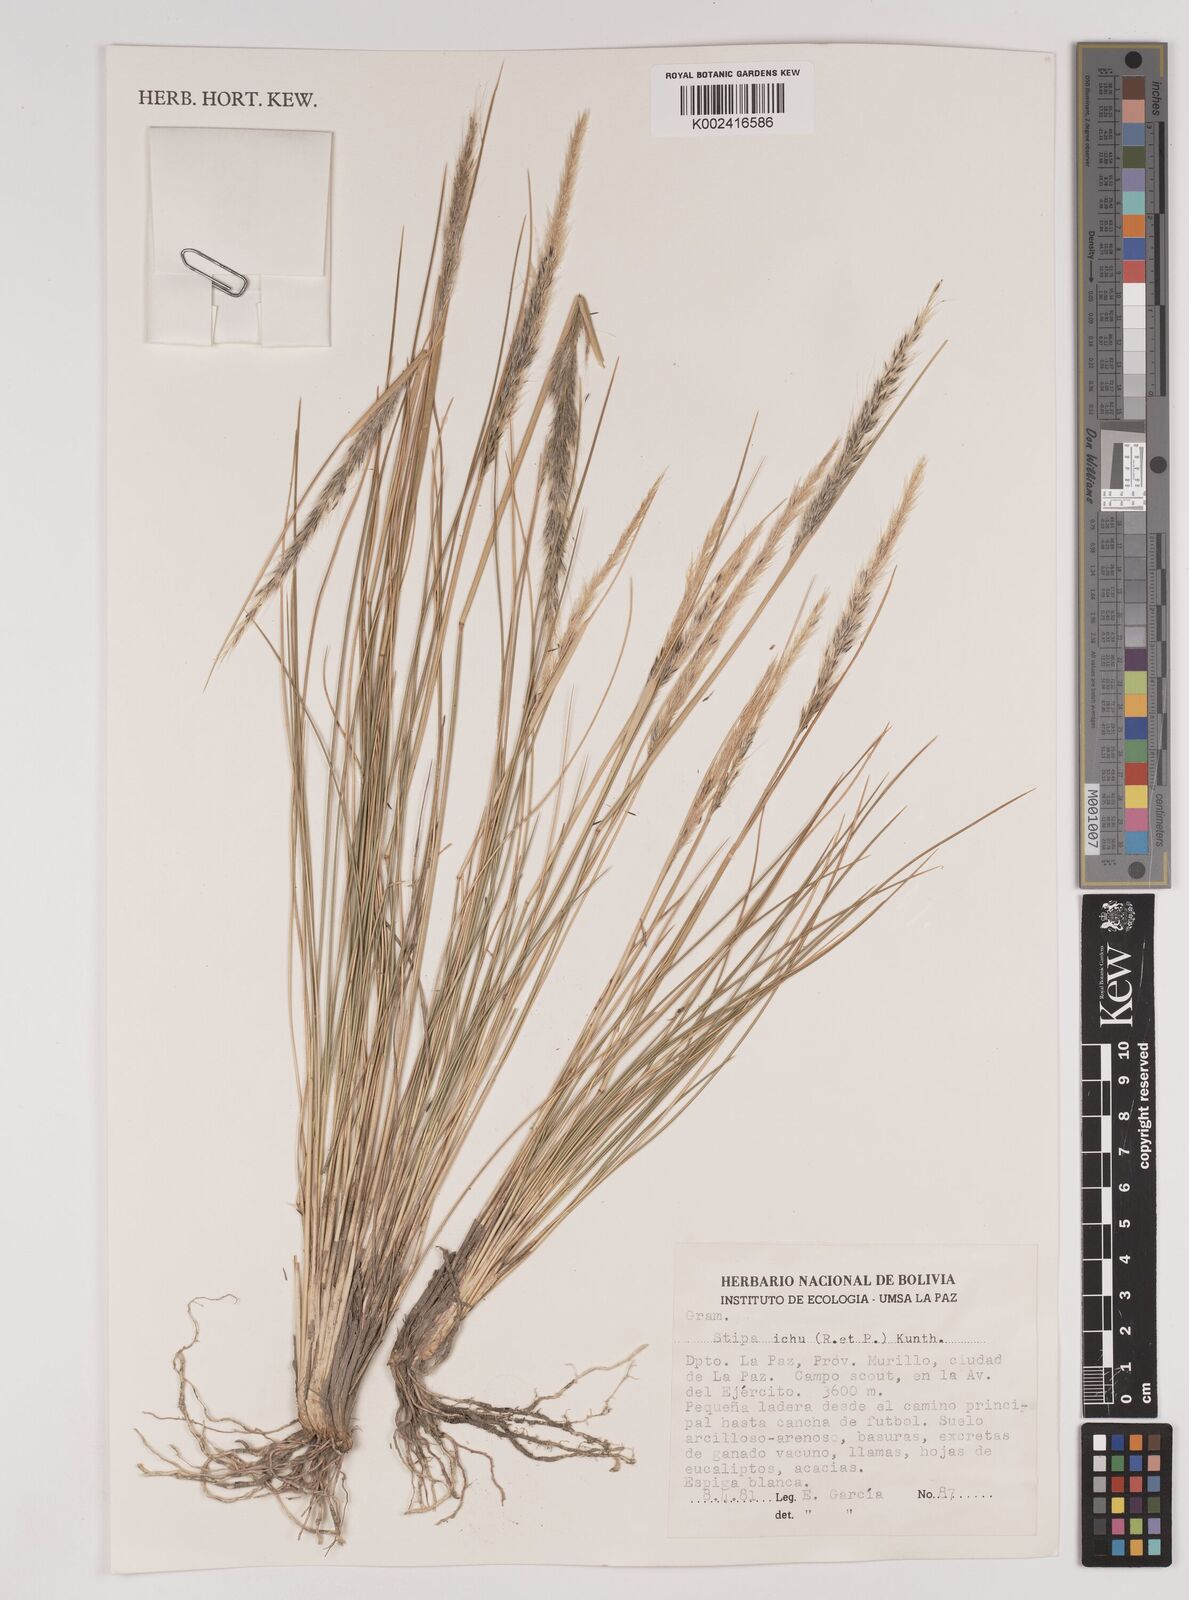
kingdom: Plantae
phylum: Tracheophyta
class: Liliopsida
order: Poales
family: Poaceae
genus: Jarava
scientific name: Jarava leptostachya
